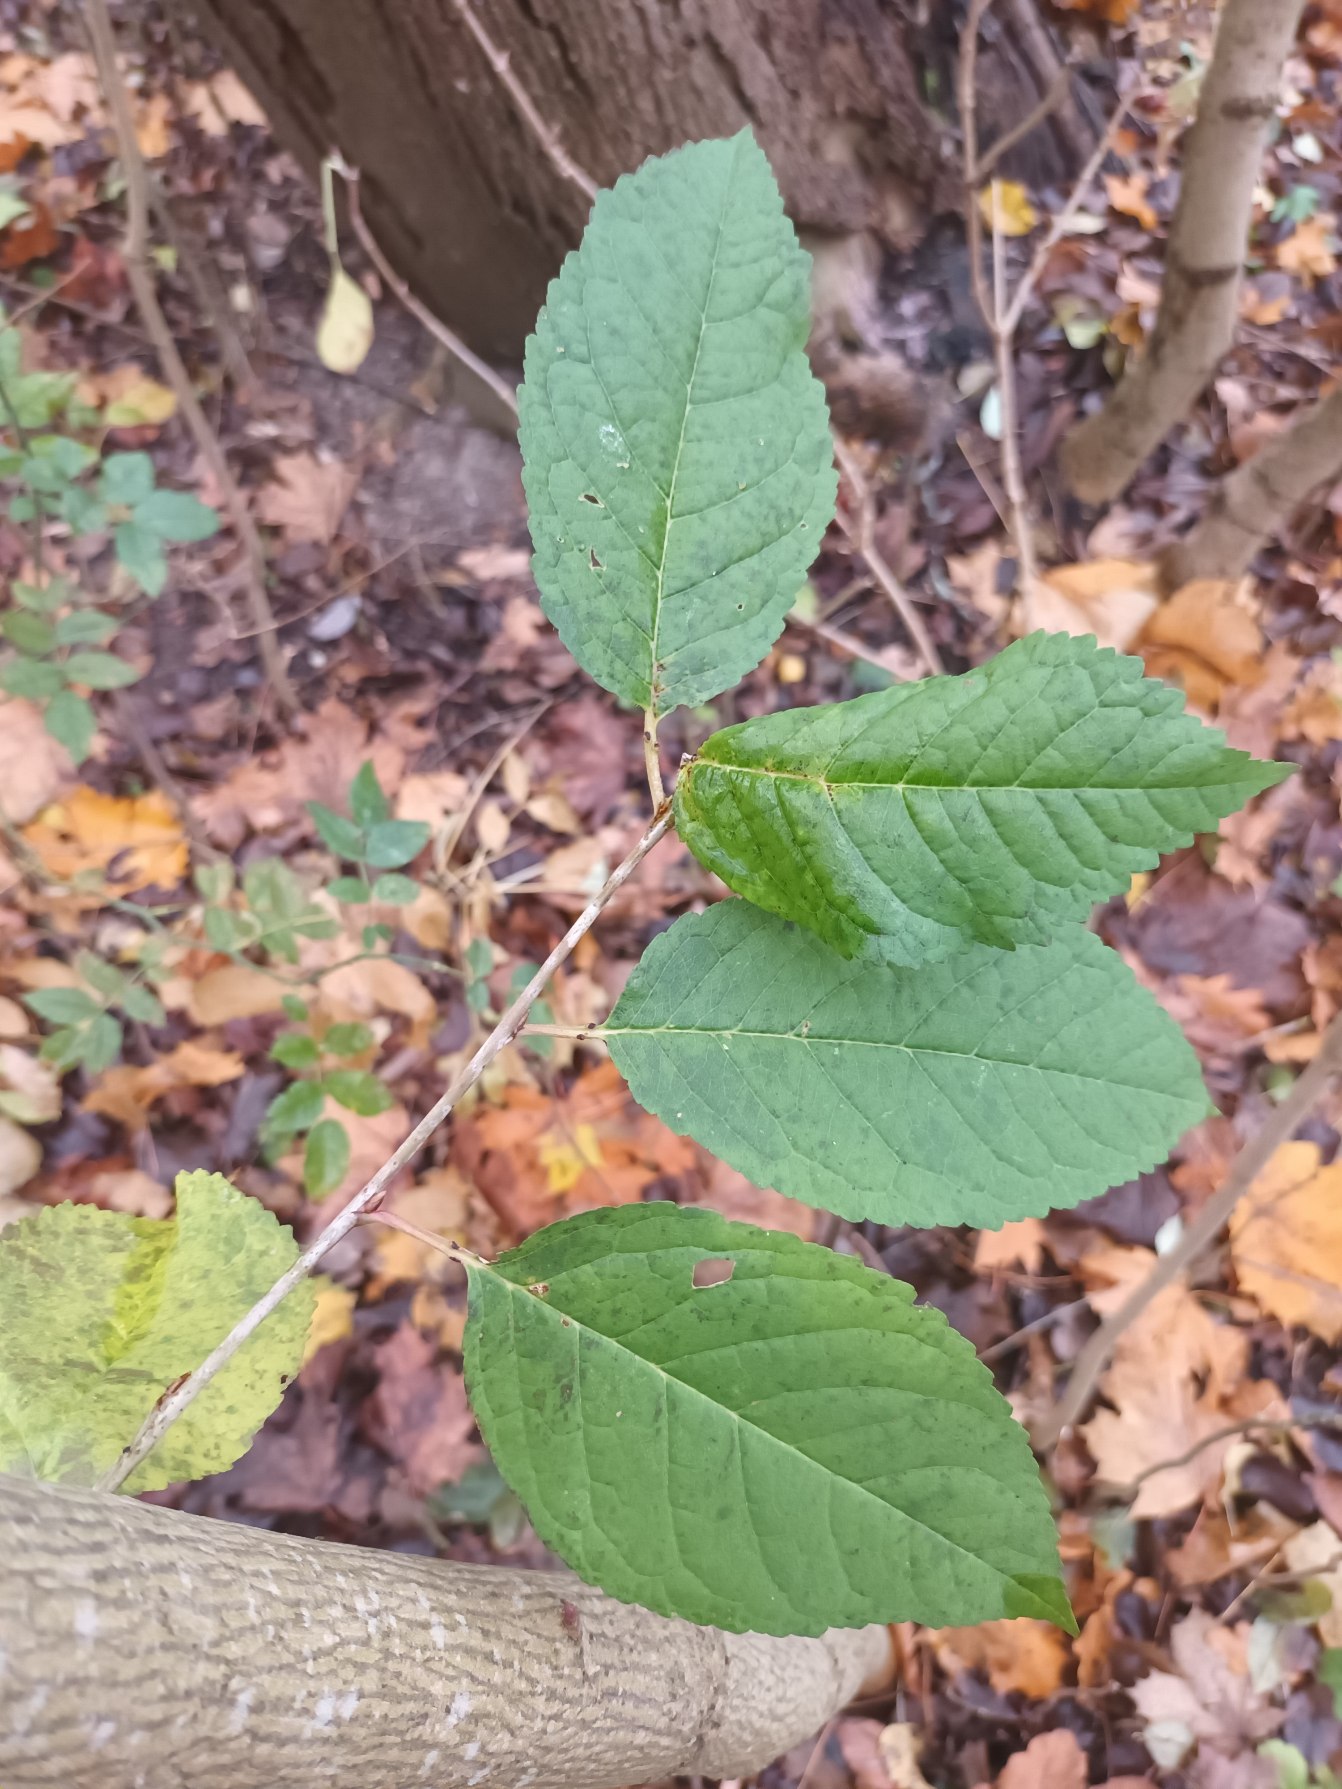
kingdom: Plantae
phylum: Tracheophyta
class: Magnoliopsida
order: Rosales
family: Rosaceae
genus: Prunus
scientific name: Prunus avium
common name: Fugle-kirsebær
